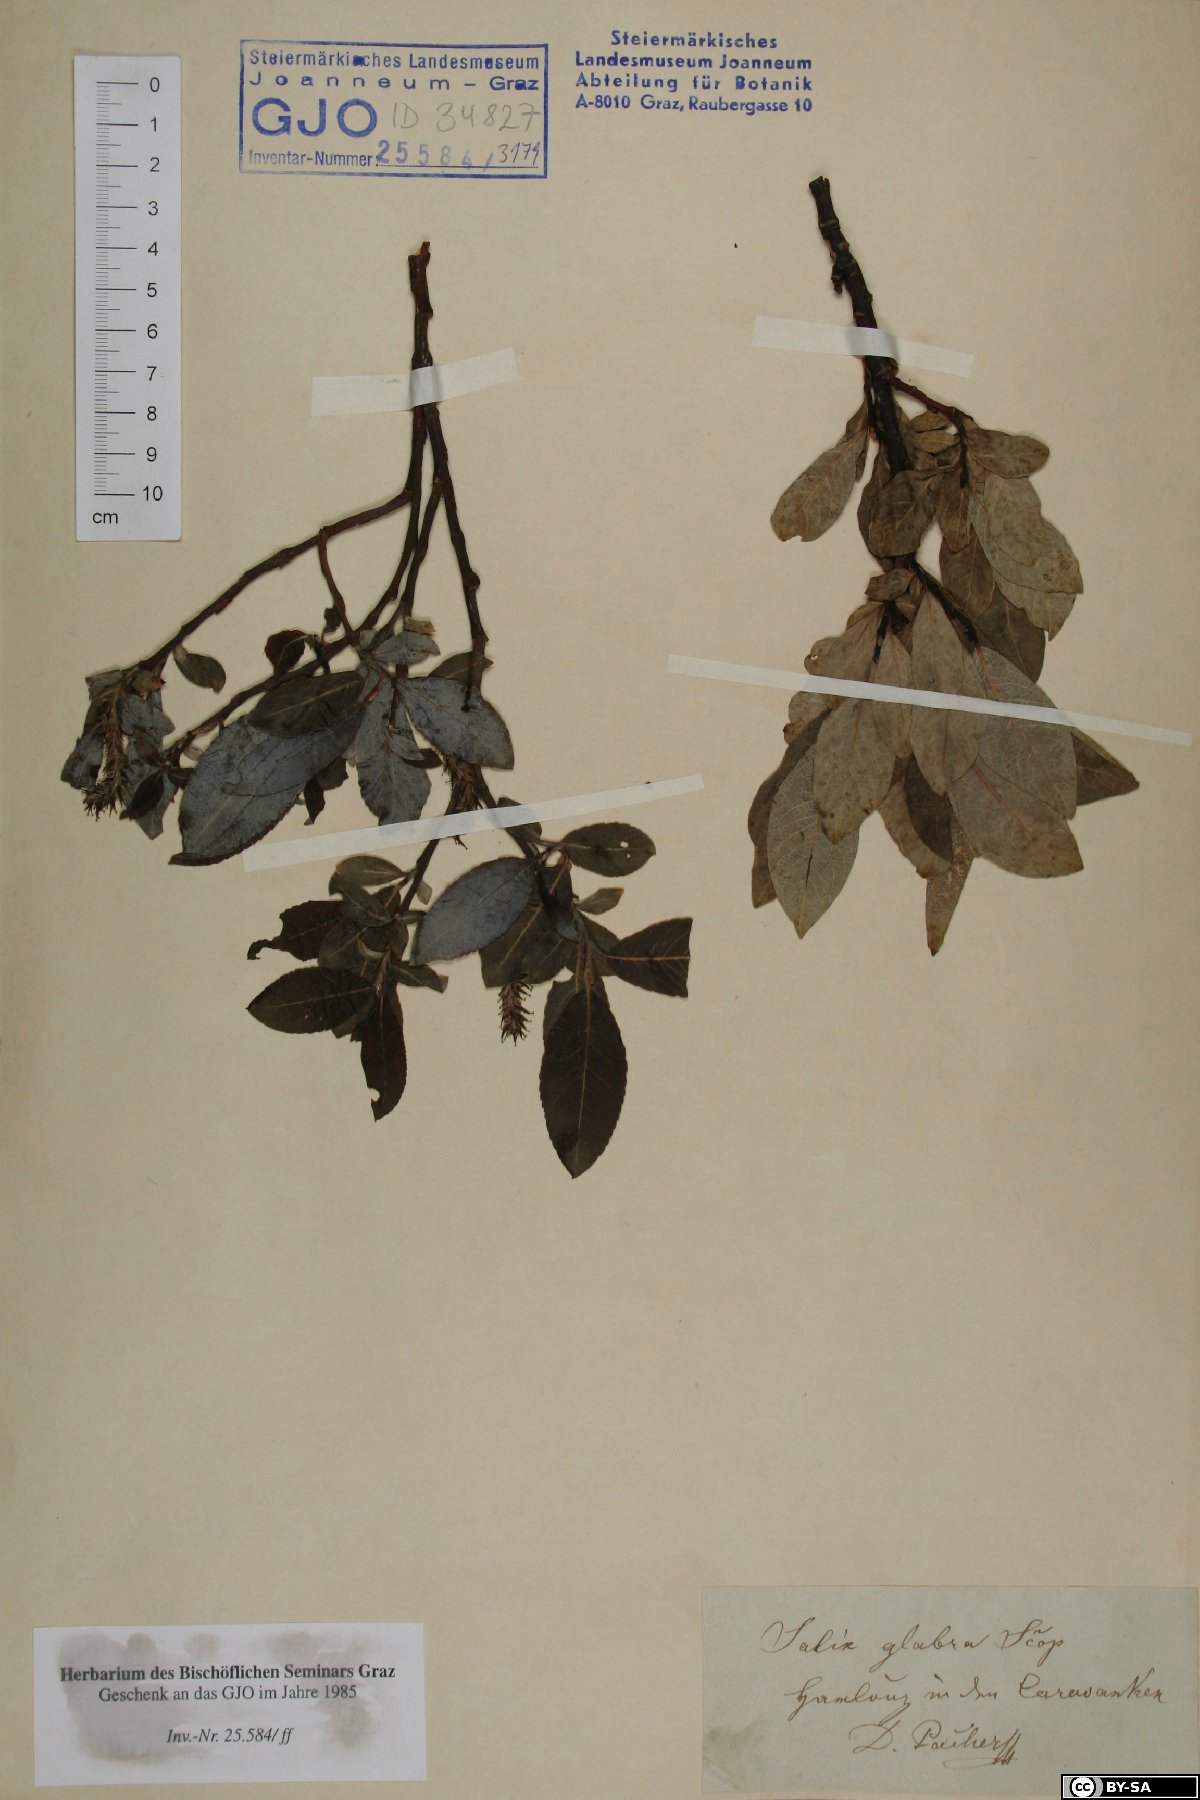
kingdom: Plantae
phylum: Tracheophyta
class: Magnoliopsida
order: Malpighiales
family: Salicaceae
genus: Salix
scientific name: Salix glabra
